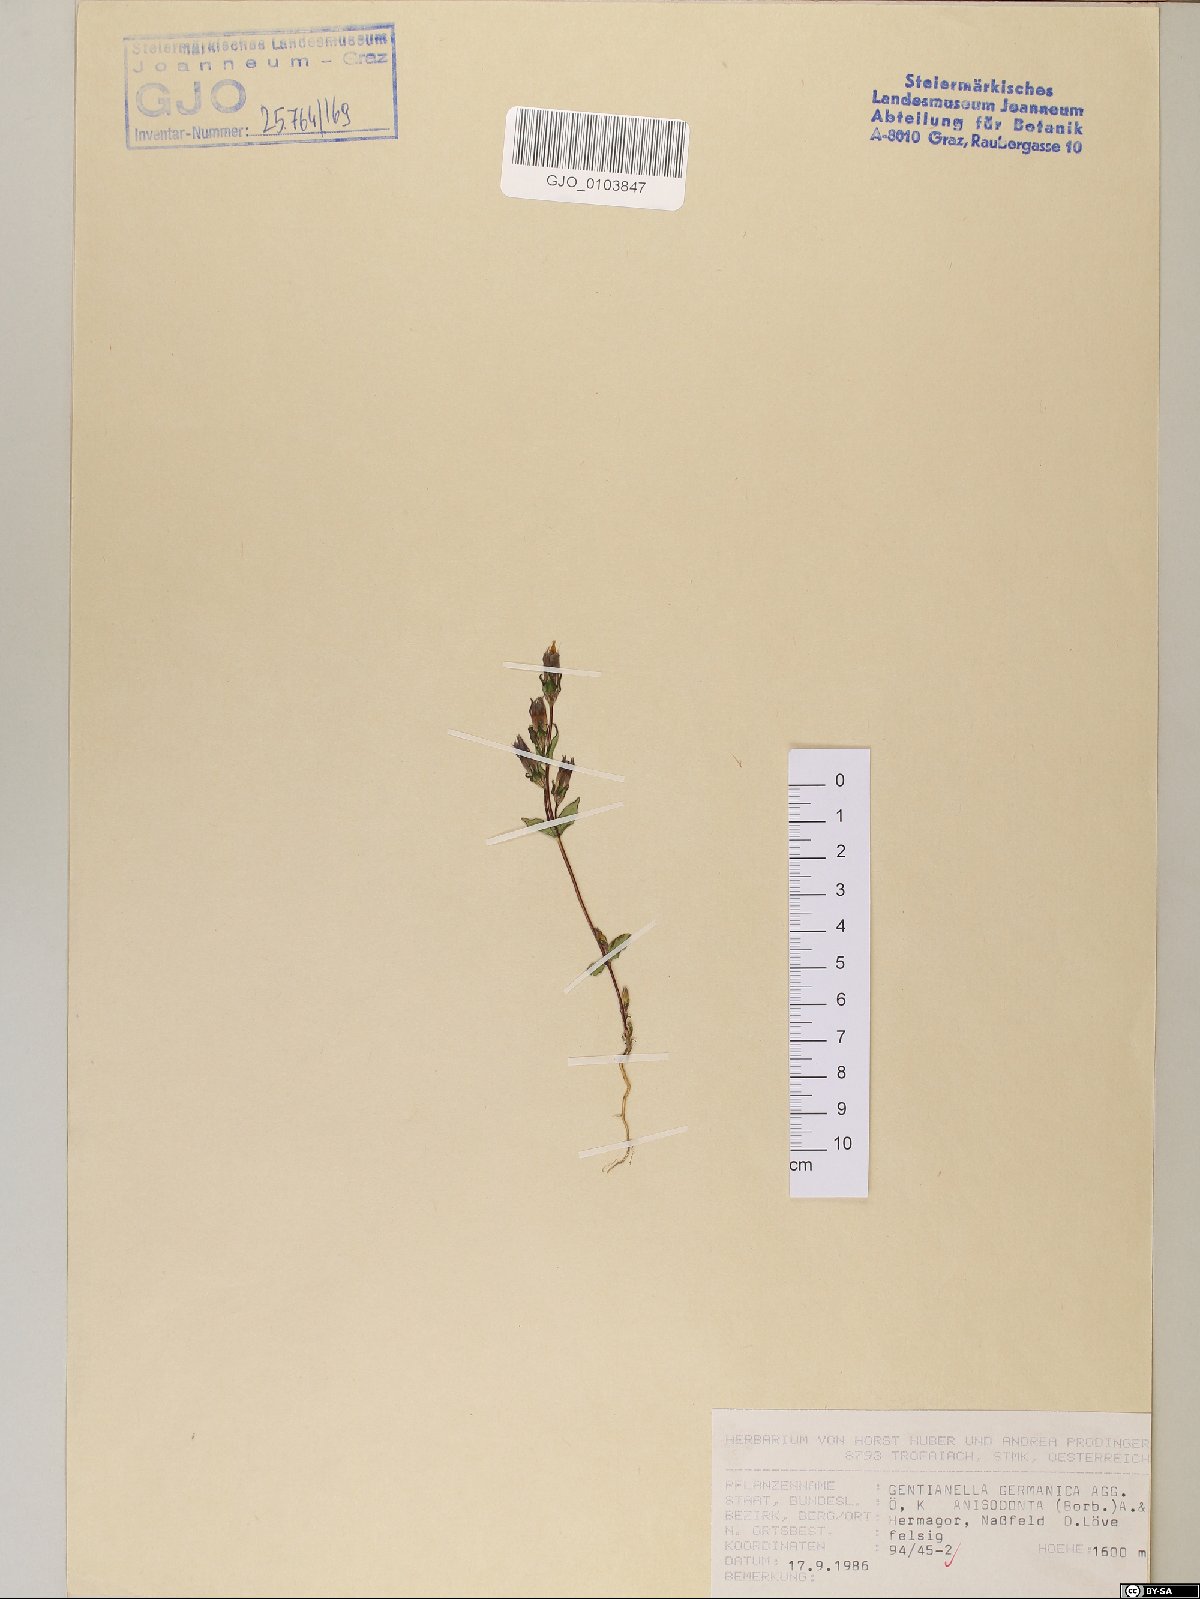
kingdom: Plantae
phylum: Tracheophyta
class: Magnoliopsida
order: Gentianales
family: Gentianaceae
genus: Gentianella
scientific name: Gentianella germanica
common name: Chiltern-gentian
